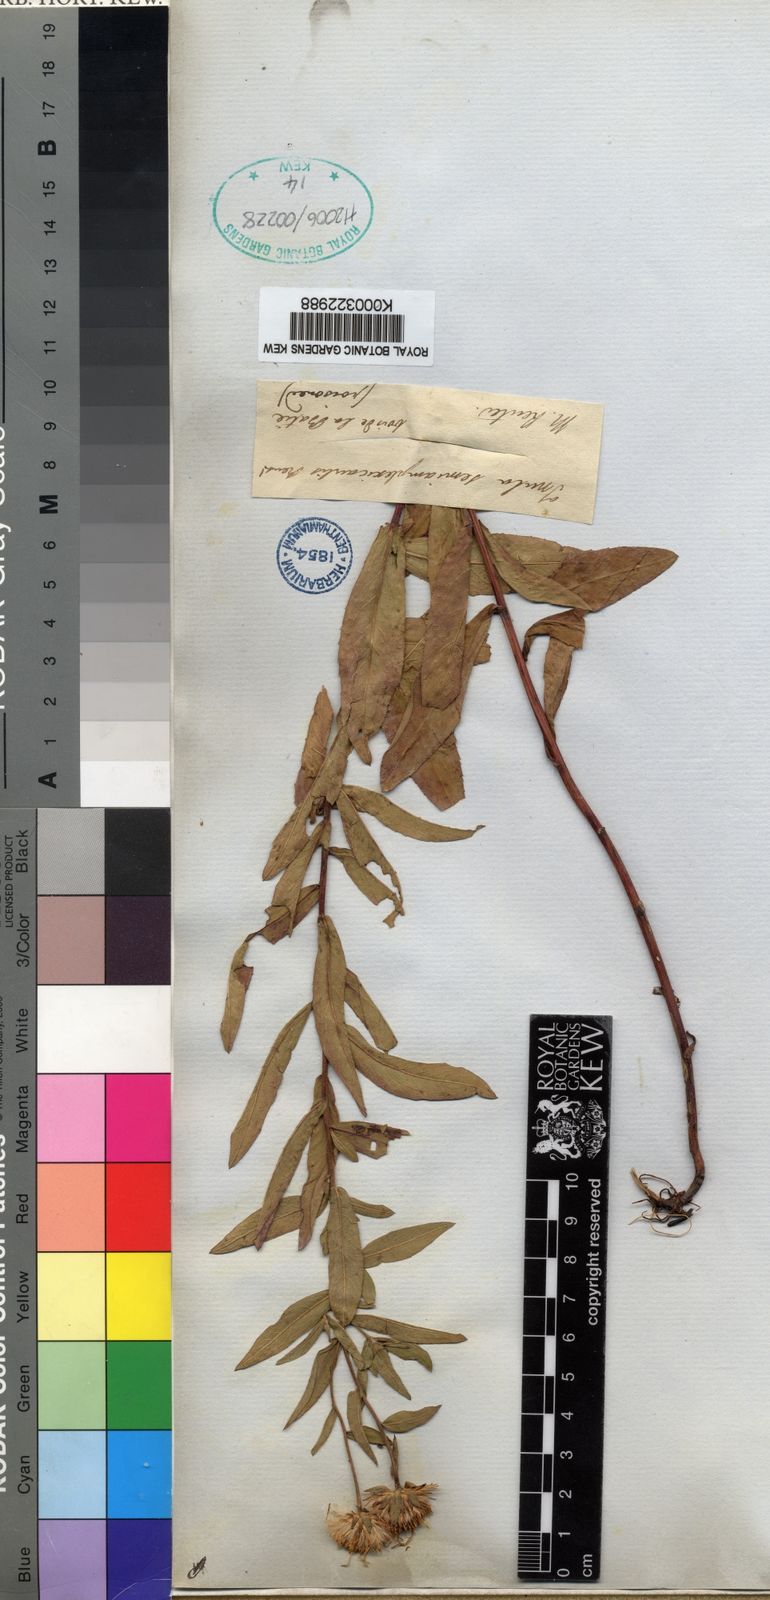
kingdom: Plantae
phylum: Tracheophyta
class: Magnoliopsida
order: Asterales
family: Asteraceae
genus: Pentanema
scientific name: Pentanema salicinum
